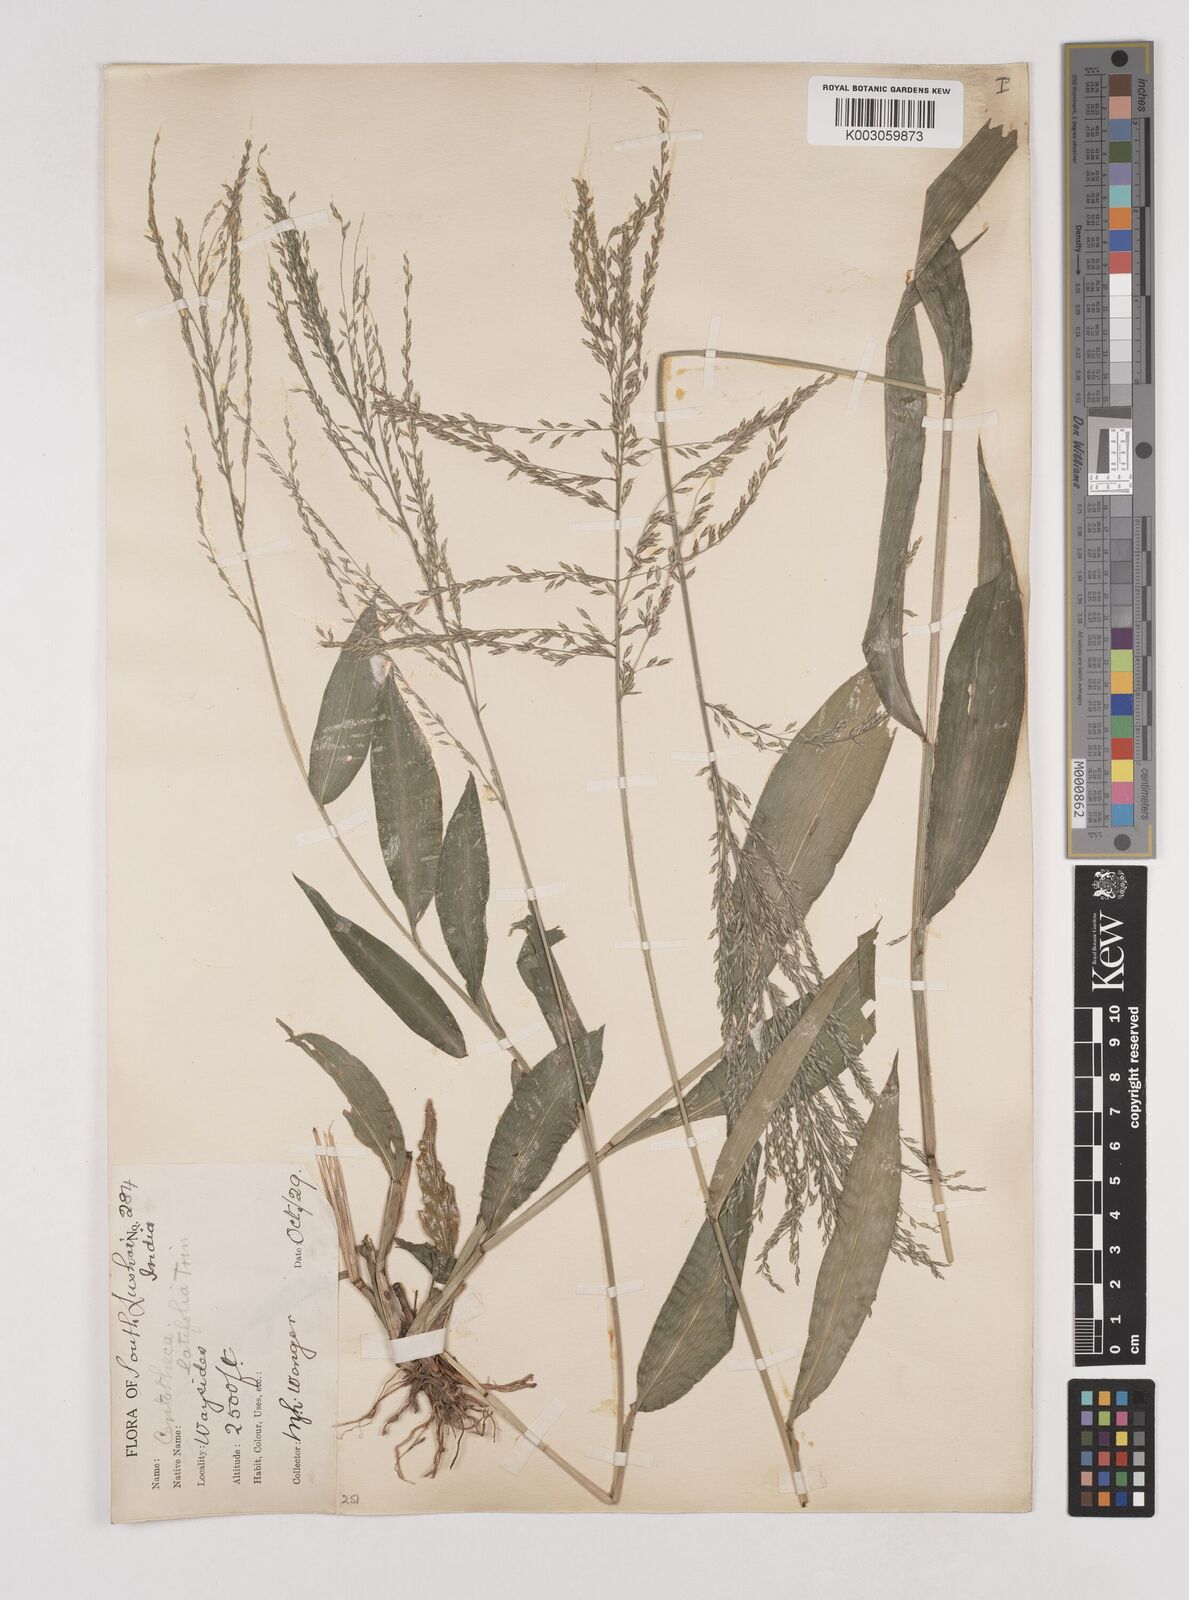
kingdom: Plantae
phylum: Tracheophyta
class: Liliopsida
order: Poales
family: Poaceae
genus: Centotheca
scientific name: Centotheca lappacea
